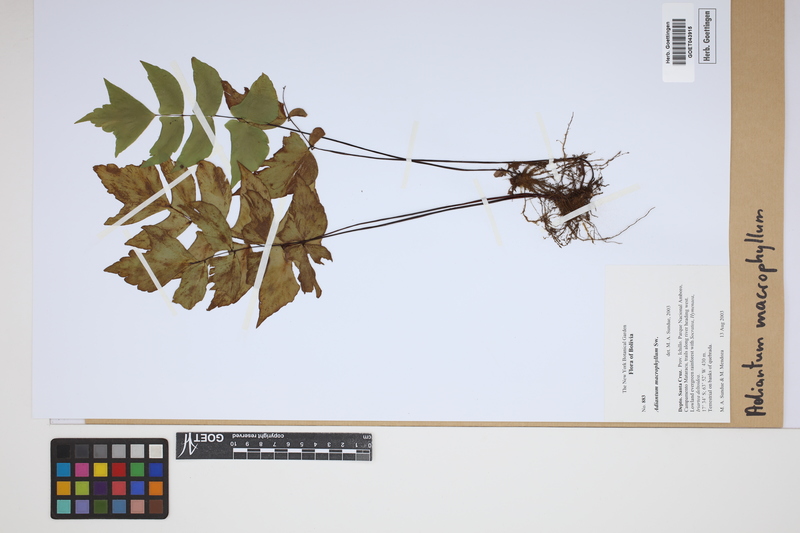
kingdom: Plantae
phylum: Tracheophyta
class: Polypodiopsida
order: Polypodiales
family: Pteridaceae
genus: Adiantum
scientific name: Adiantum macrophyllum
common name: Largeleaf maidenhair
